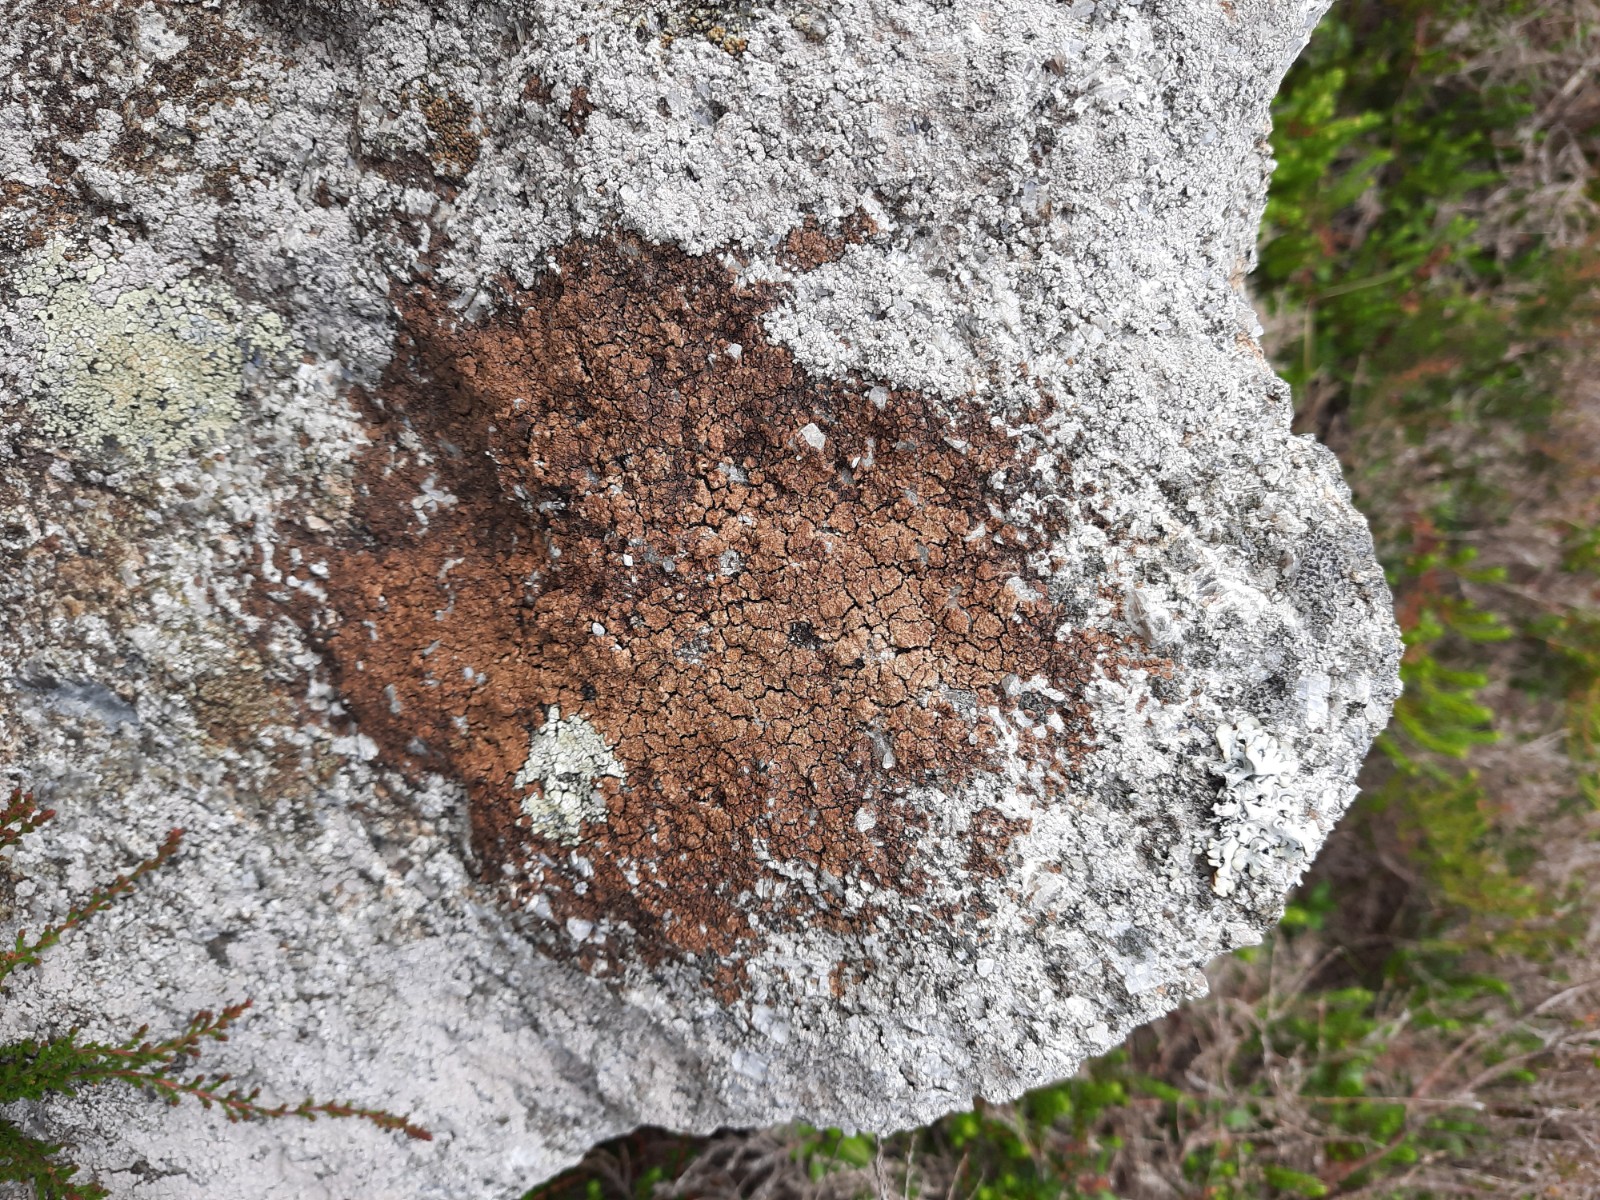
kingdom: Fungi
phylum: Ascomycota
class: Lecanoromycetes
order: Acarosporales
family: Acarosporaceae
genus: Acarospora
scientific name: Acarospora fuscata
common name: brun småsporelav
